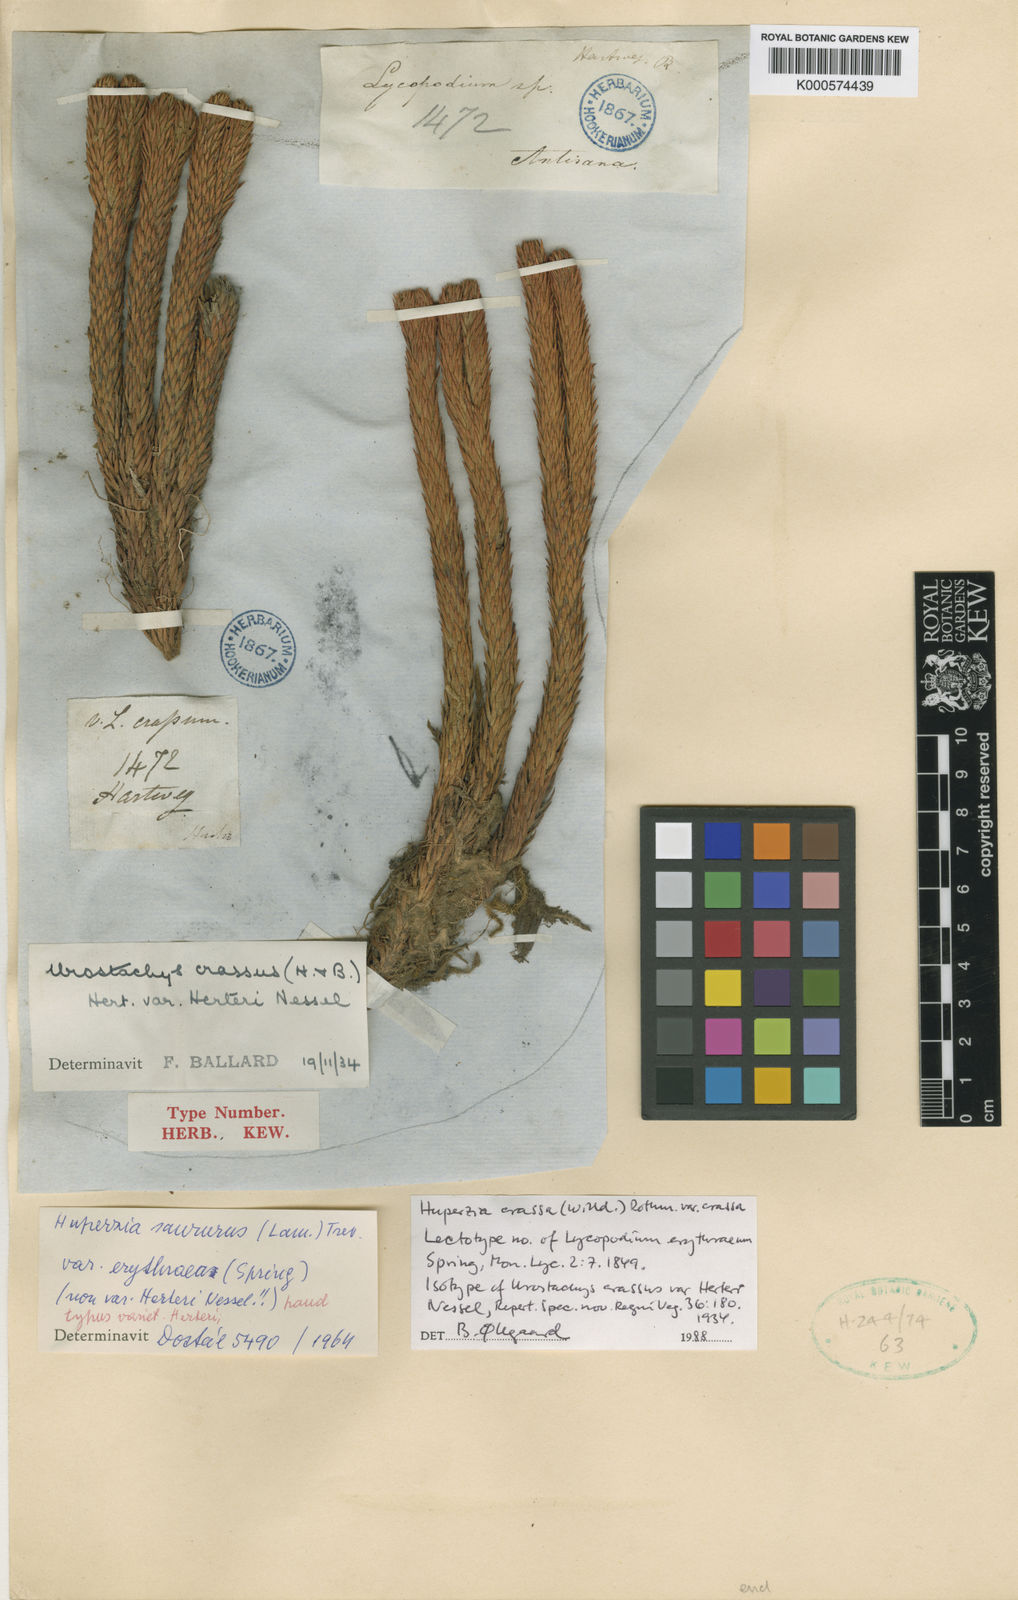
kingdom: Plantae
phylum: Tracheophyta
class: Lycopodiopsida
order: Lycopodiales
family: Lycopodiaceae
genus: Phlegmariurus
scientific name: Phlegmariurus crassus
